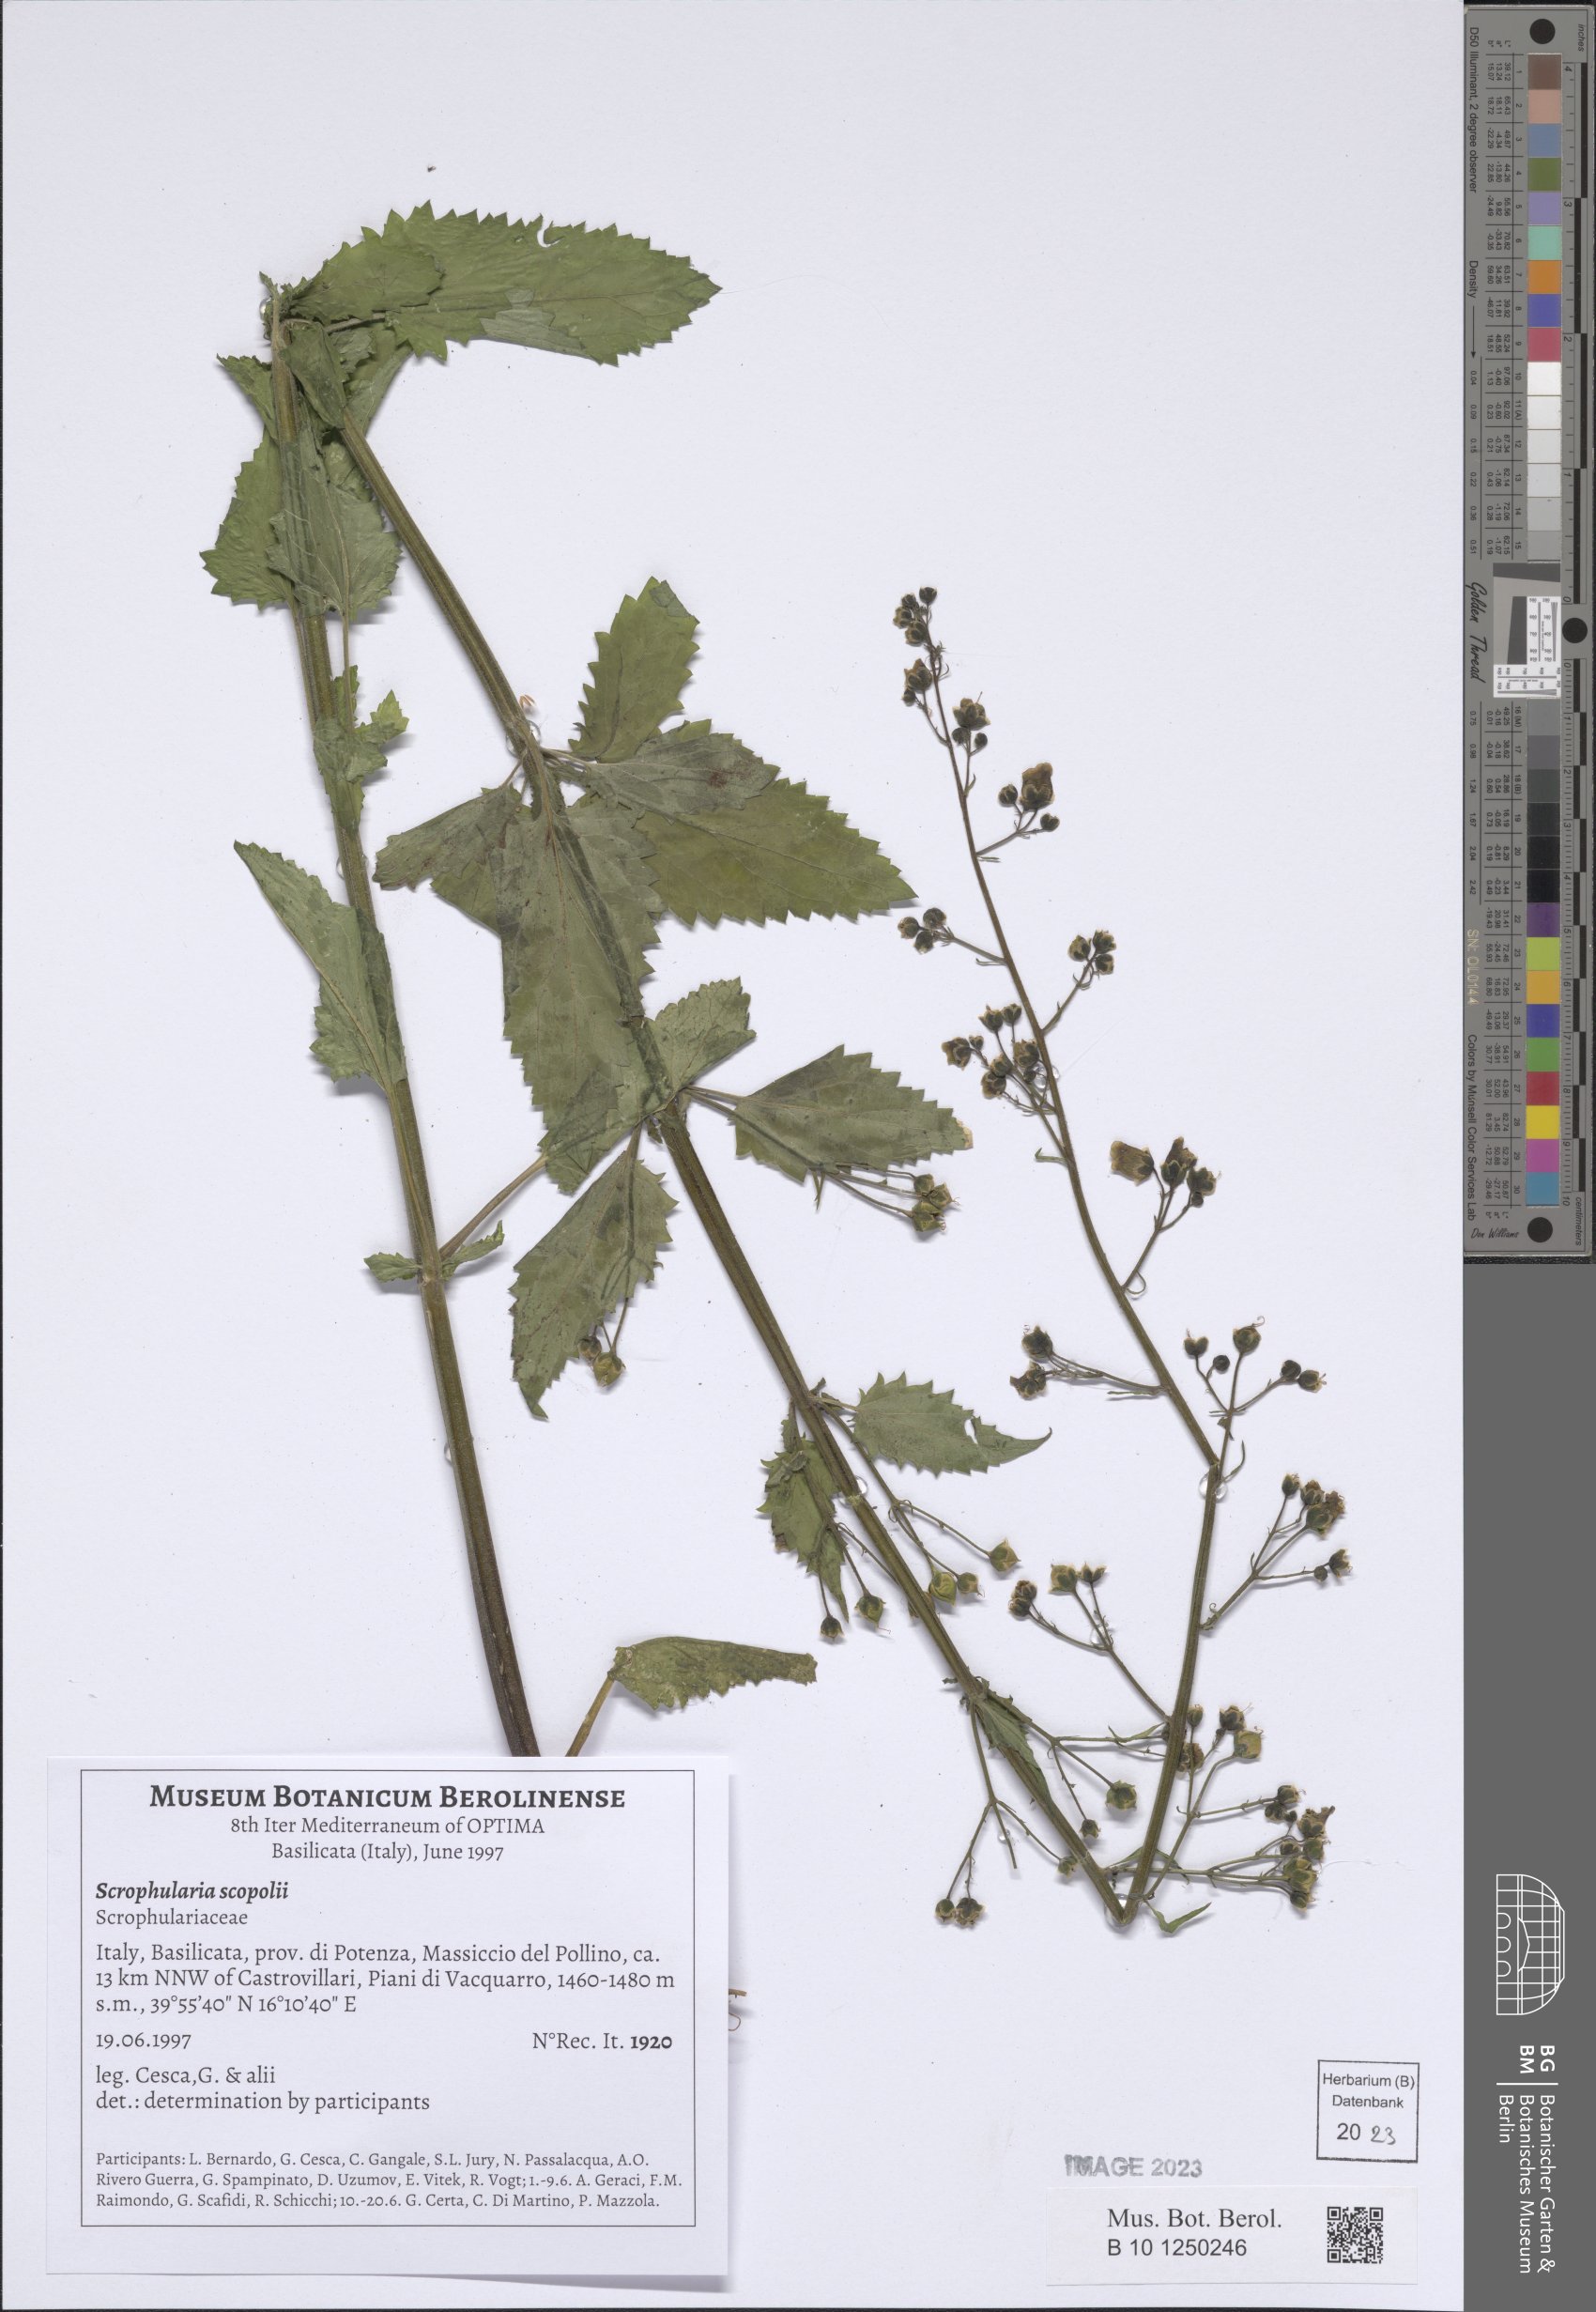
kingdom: Plantae
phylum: Tracheophyta
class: Magnoliopsida
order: Lamiales
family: Scrophulariaceae
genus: Scrophularia
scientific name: Scrophularia scopolii
